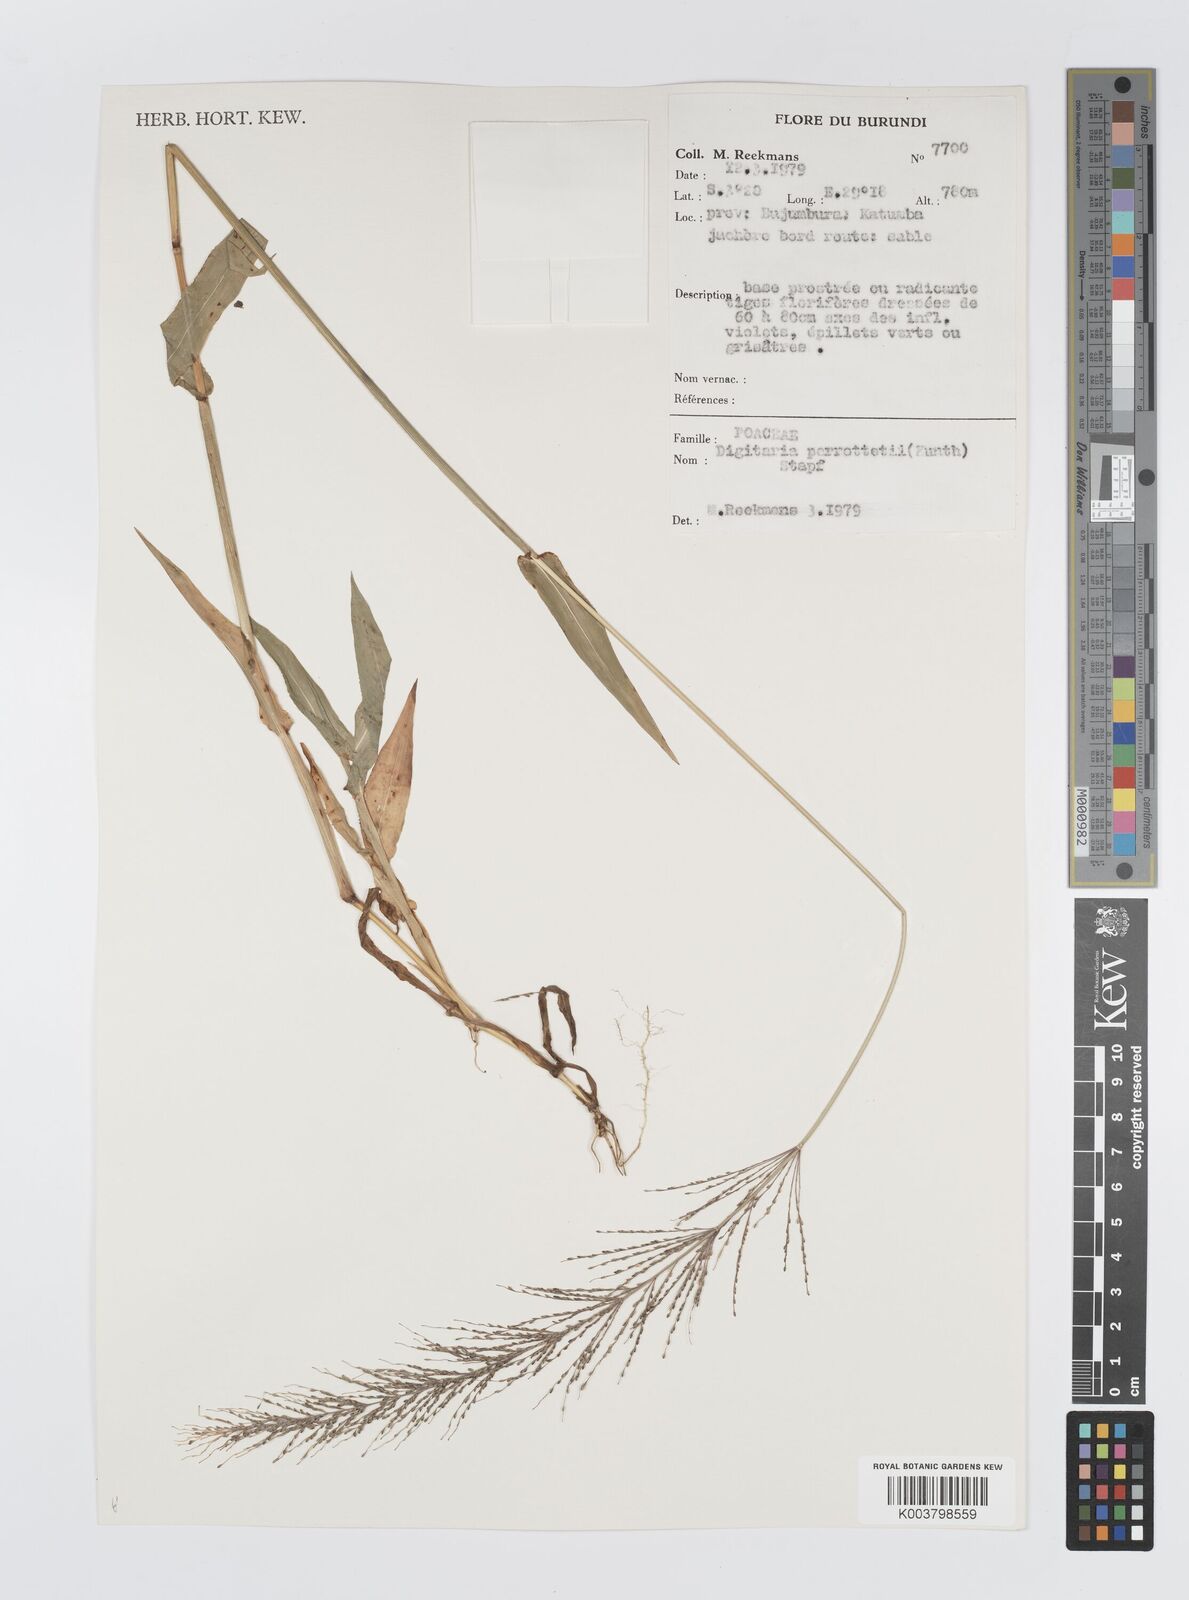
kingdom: Plantae
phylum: Tracheophyta
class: Liliopsida
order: Poales
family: Poaceae
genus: Digitaria
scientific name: Digitaria perrottetii
